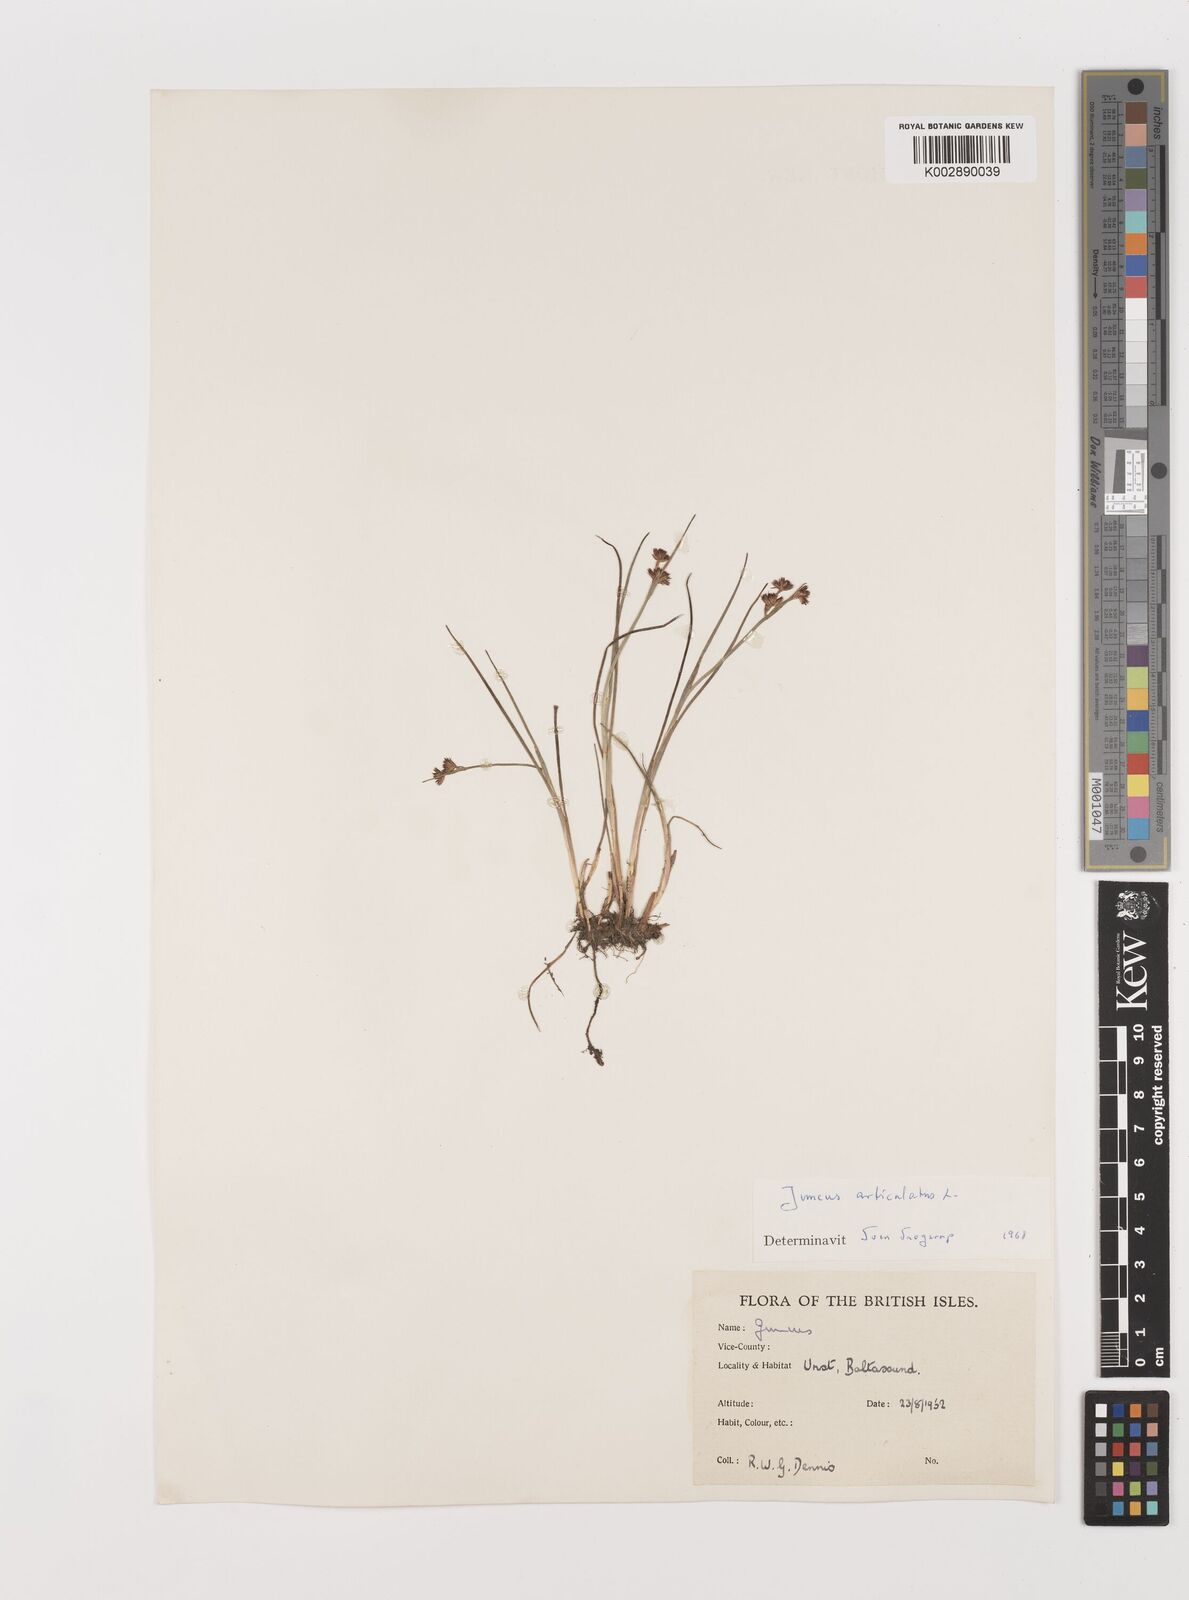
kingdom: Plantae
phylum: Tracheophyta
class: Liliopsida
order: Poales
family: Juncaceae
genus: Juncus
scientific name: Juncus articulatus
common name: Jointed rush
